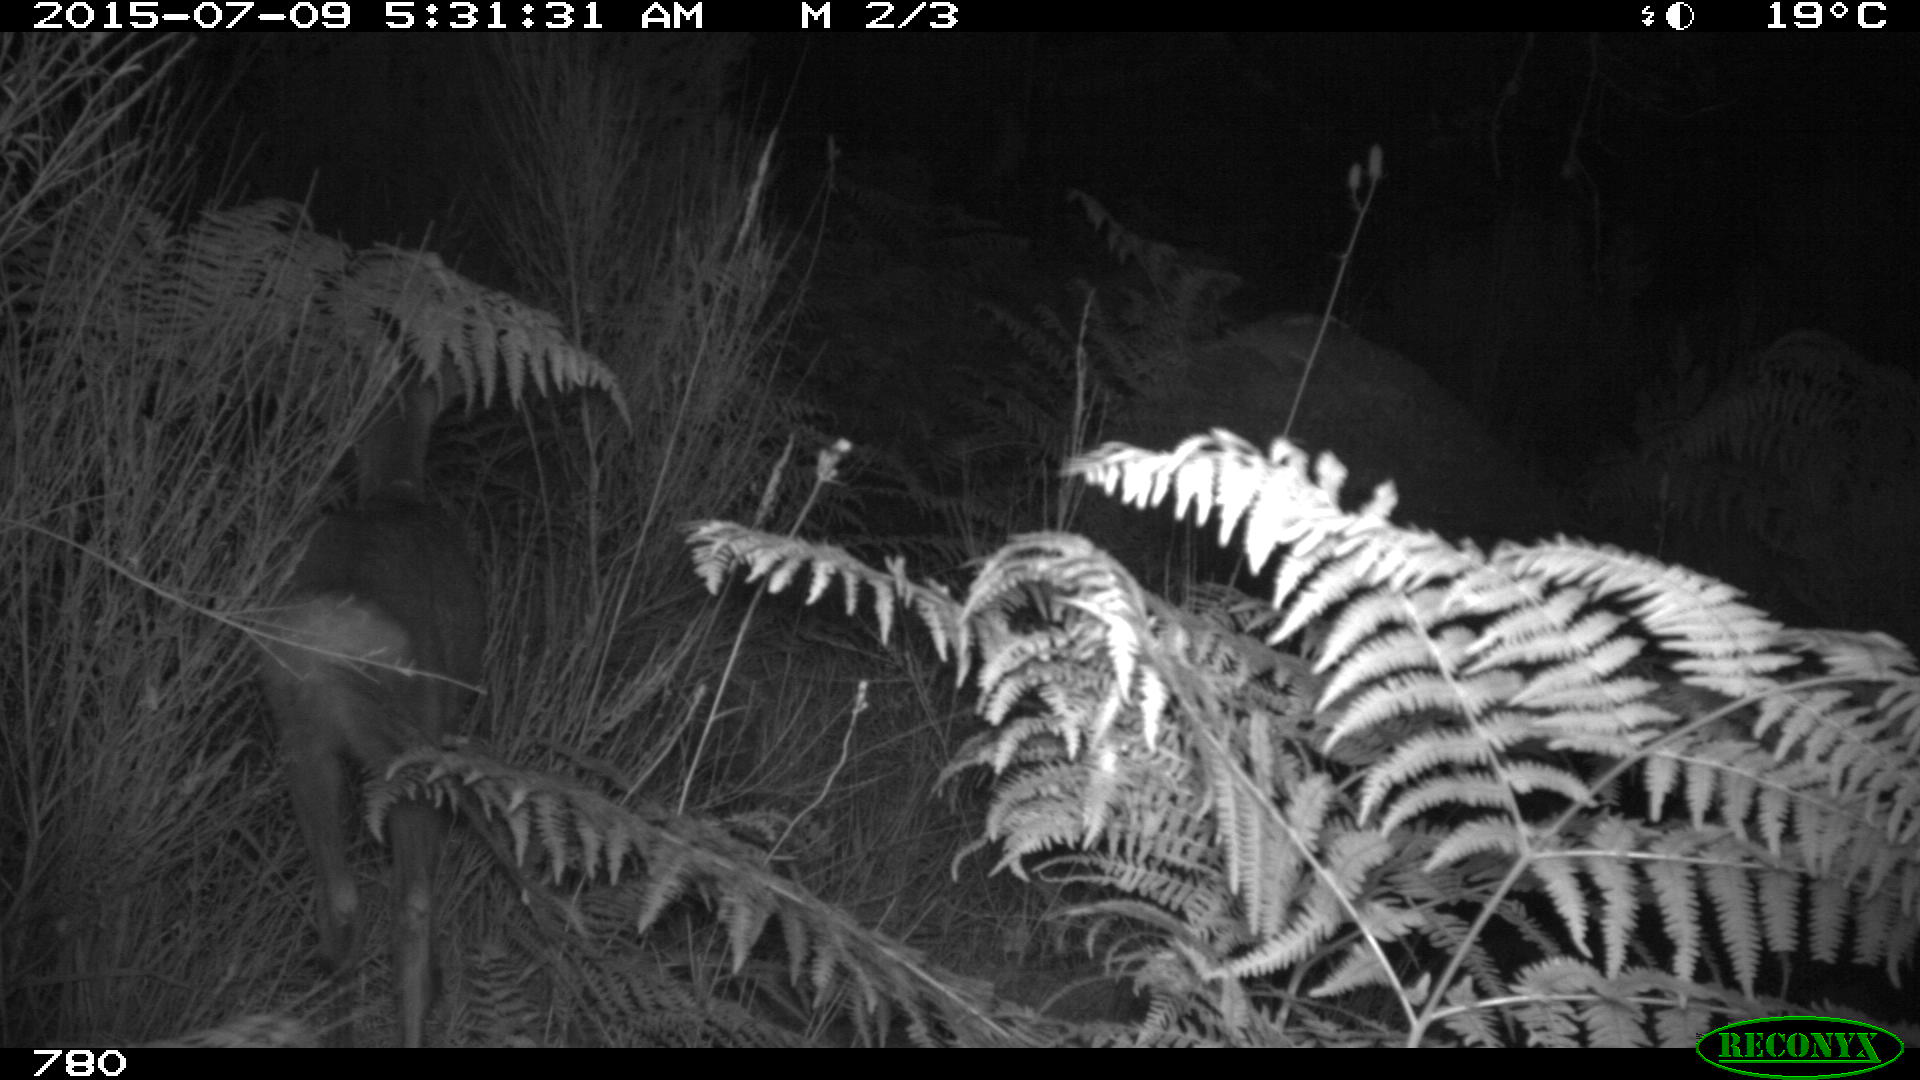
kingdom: Animalia
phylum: Chordata
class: Mammalia
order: Artiodactyla
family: Cervidae
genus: Capreolus
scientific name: Capreolus capreolus
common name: Western roe deer
